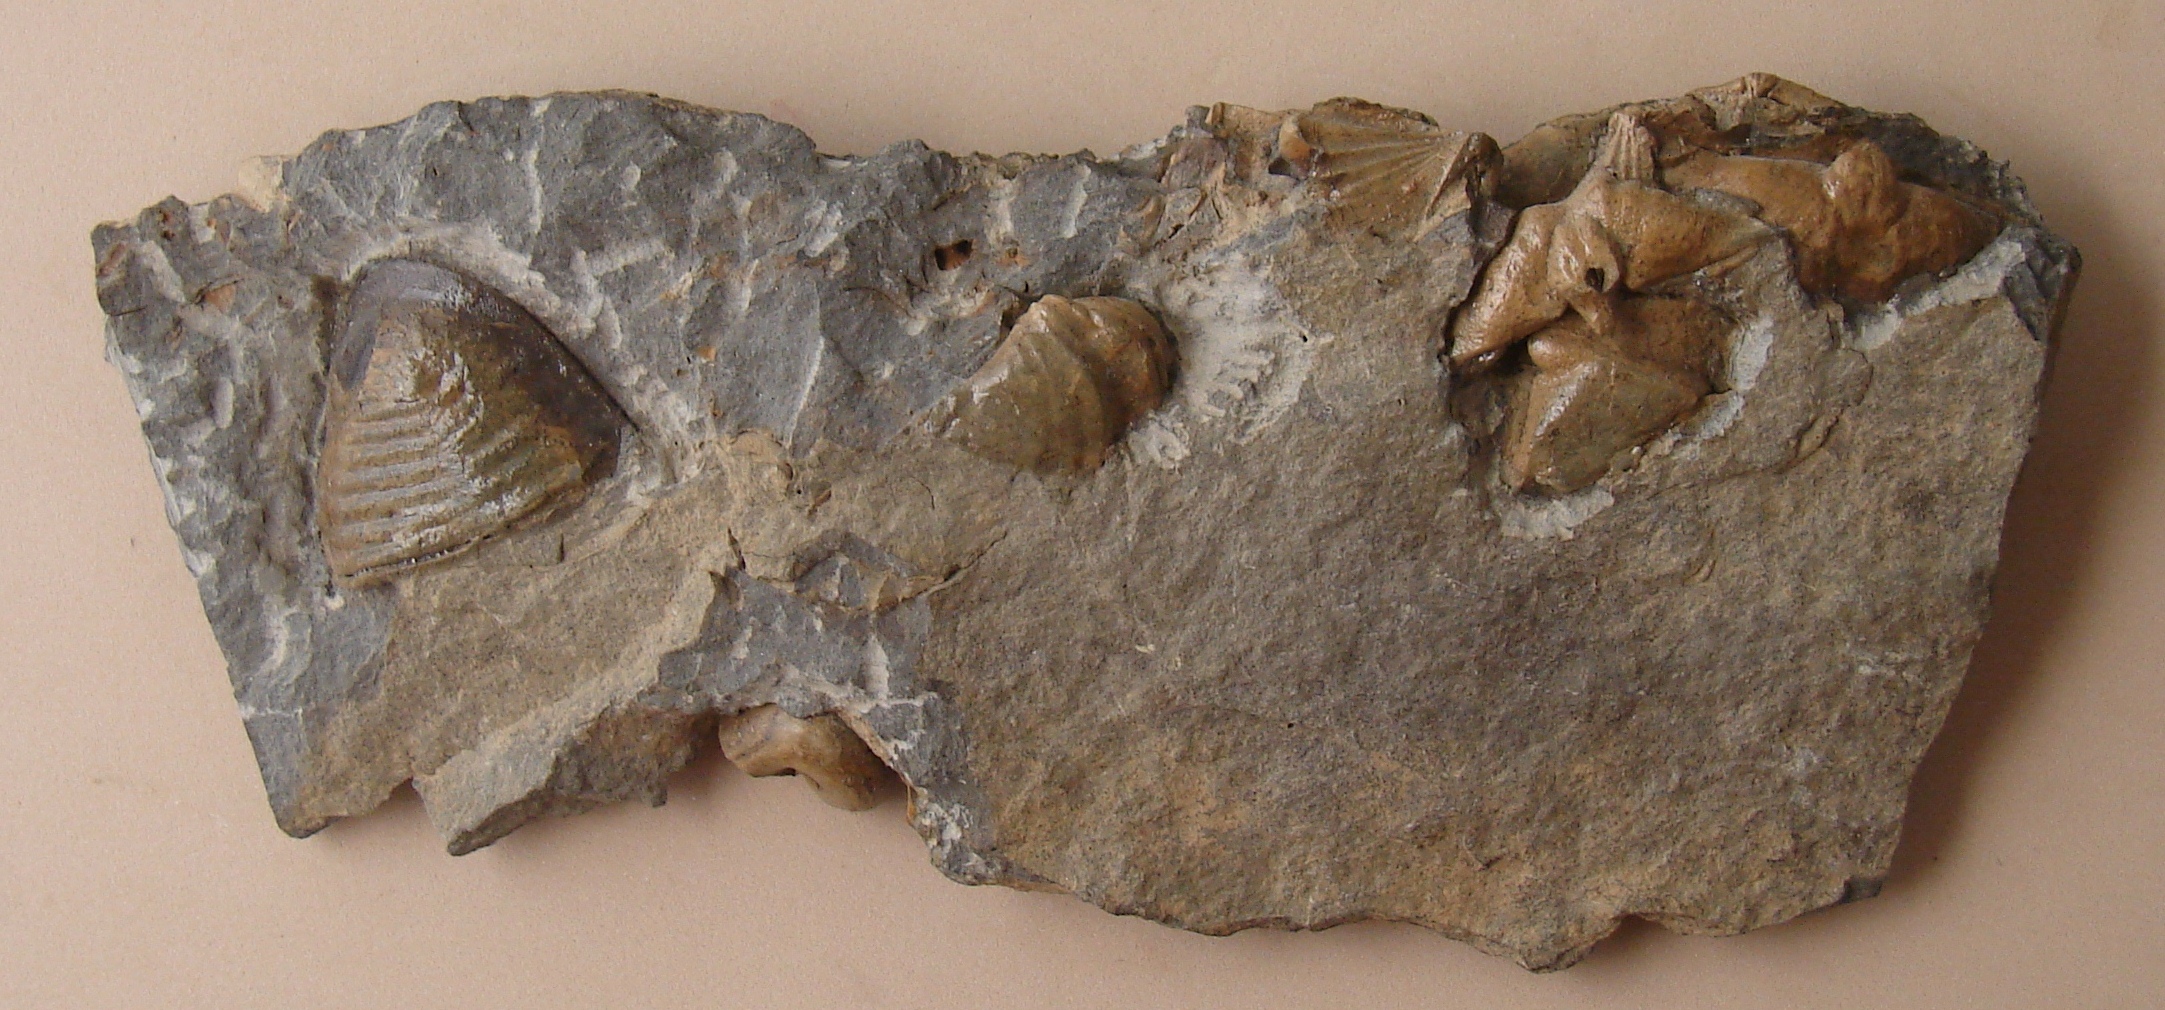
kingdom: Animalia
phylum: Brachiopoda
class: Rhynchonellata
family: Hysterolitidae
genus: Arduspirifer
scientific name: Arduspirifer Spirifer arduennensis
